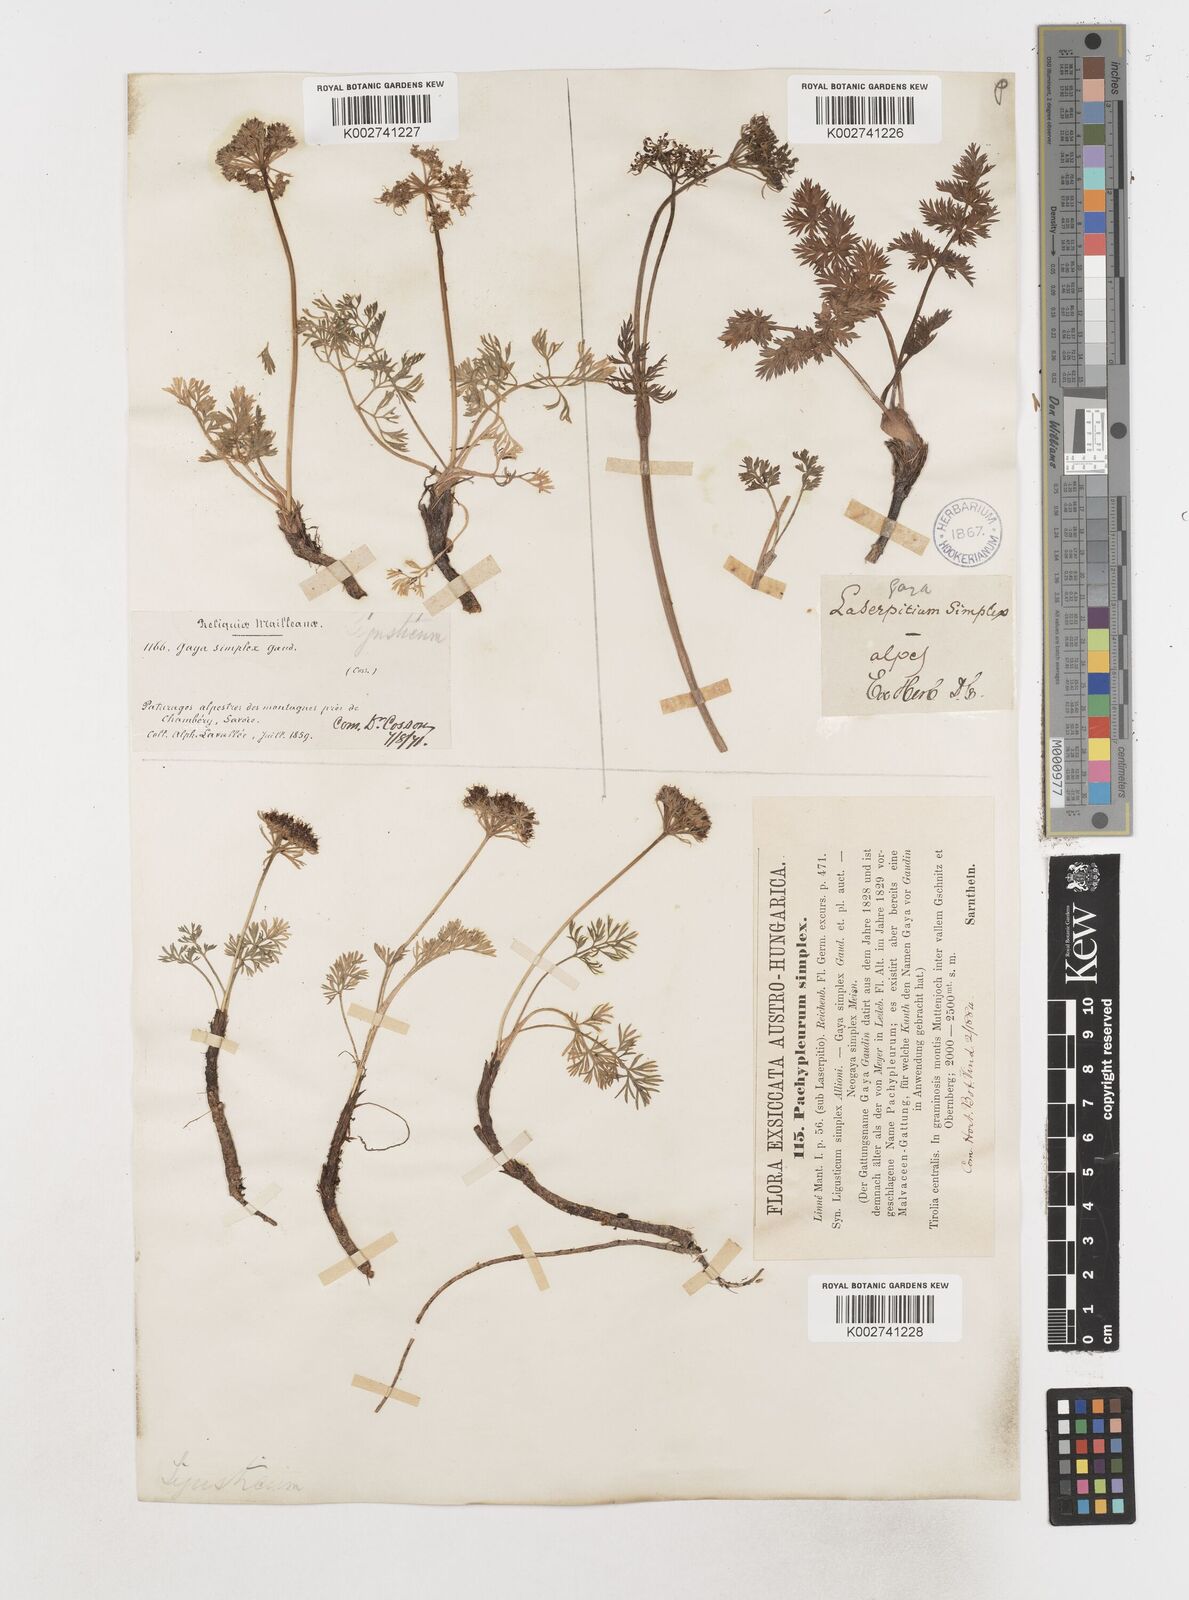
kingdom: Plantae
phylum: Tracheophyta
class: Magnoliopsida
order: Apiales
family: Apiaceae
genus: Pachypleurum
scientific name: Pachypleurum mutellinoides
